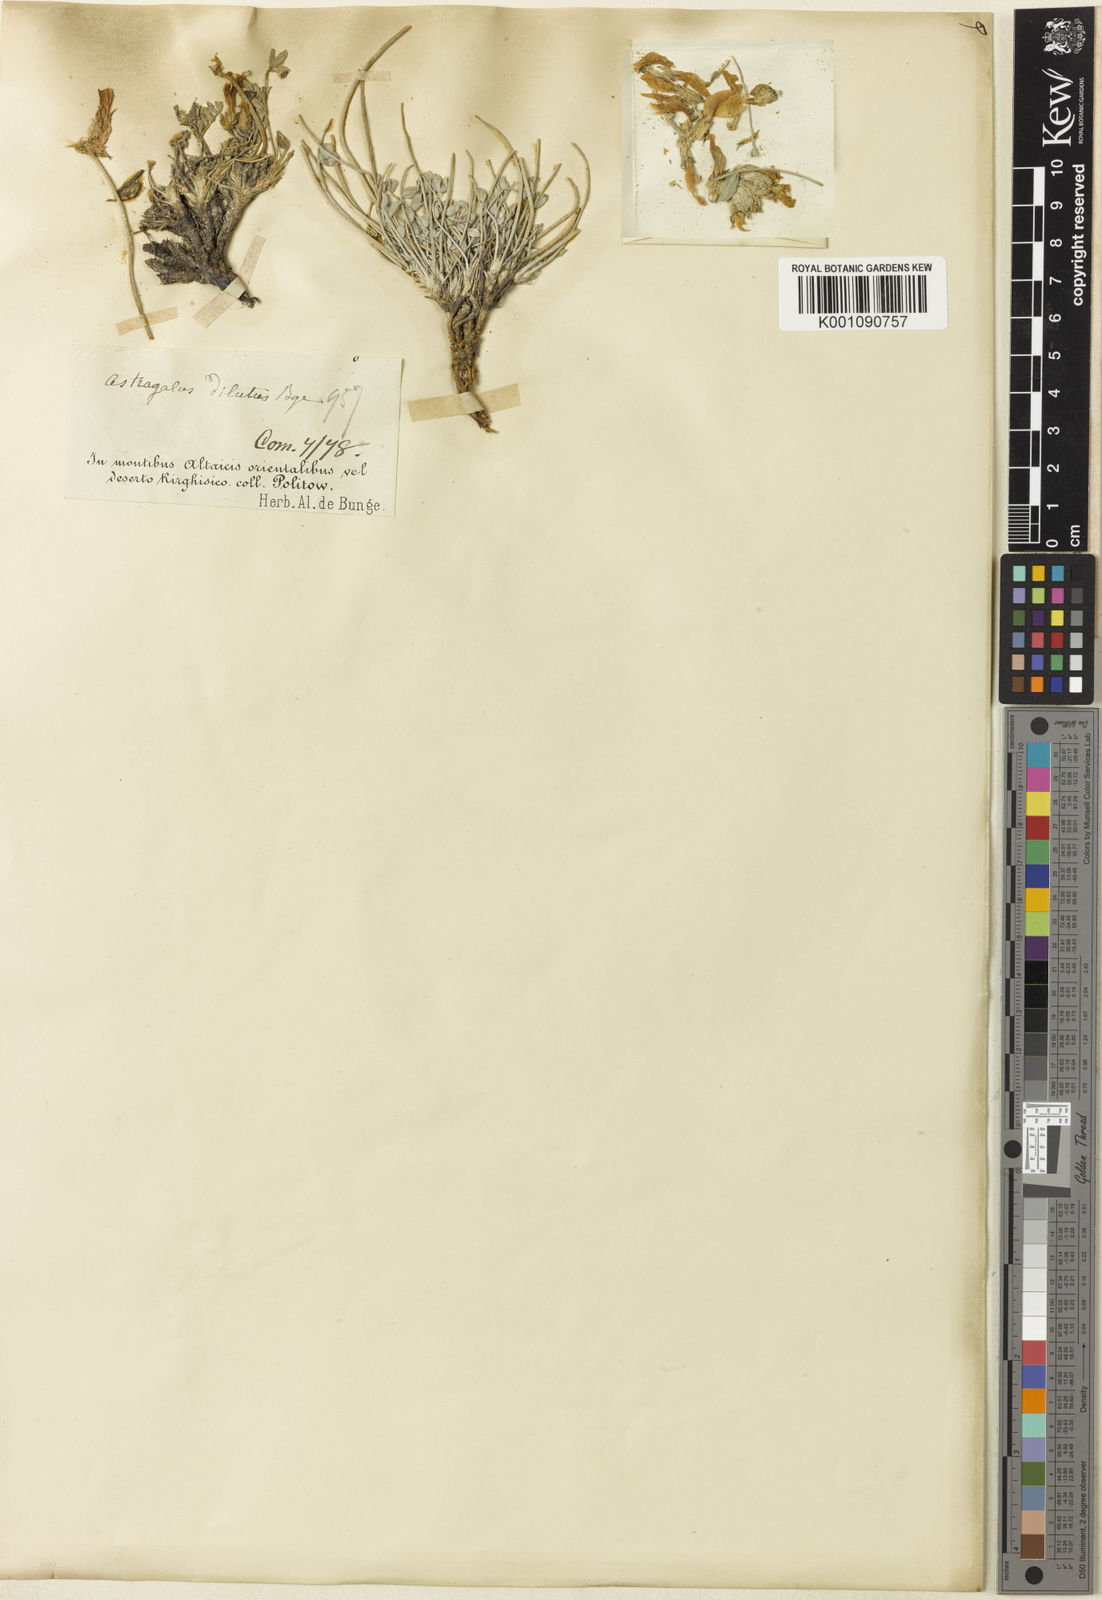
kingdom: Plantae
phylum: Tracheophyta
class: Magnoliopsida
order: Fabales
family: Fabaceae
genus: Astragalus
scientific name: Astragalus
